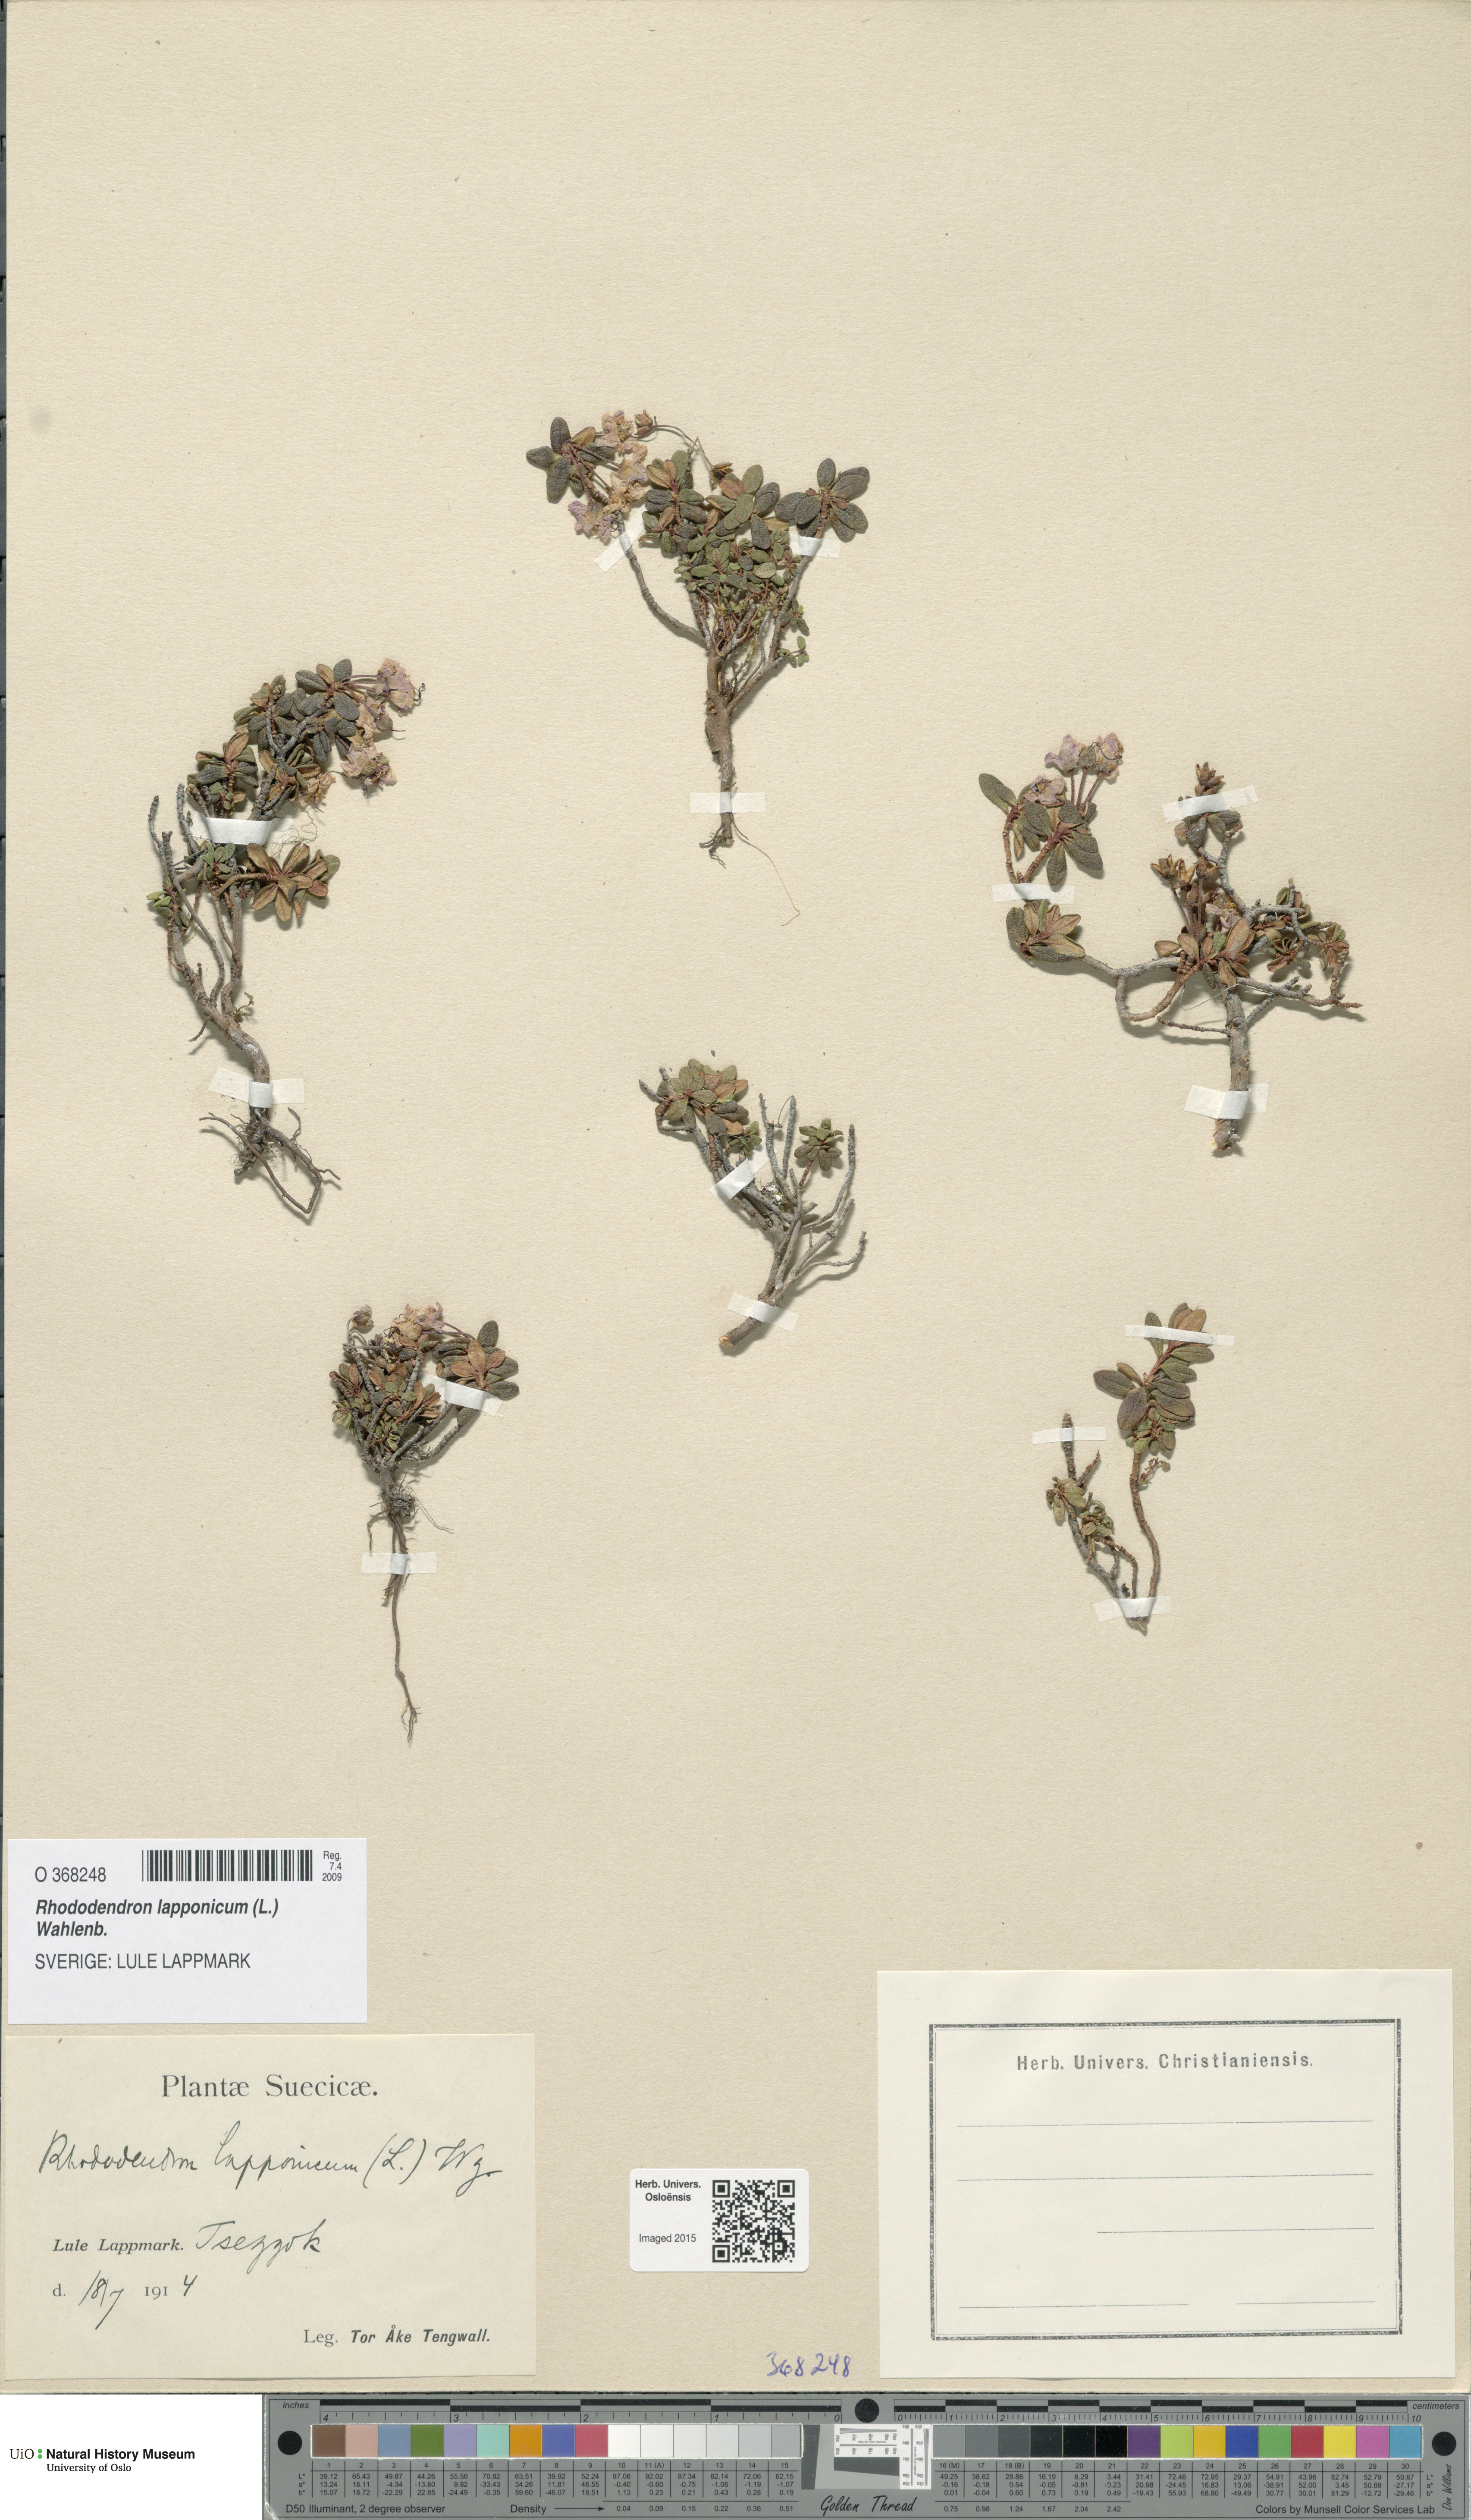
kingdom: Plantae
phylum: Tracheophyta
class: Magnoliopsida
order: Ericales
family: Ericaceae
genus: Rhododendron
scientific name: Rhododendron lapponicum
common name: Lapland rhododendron
